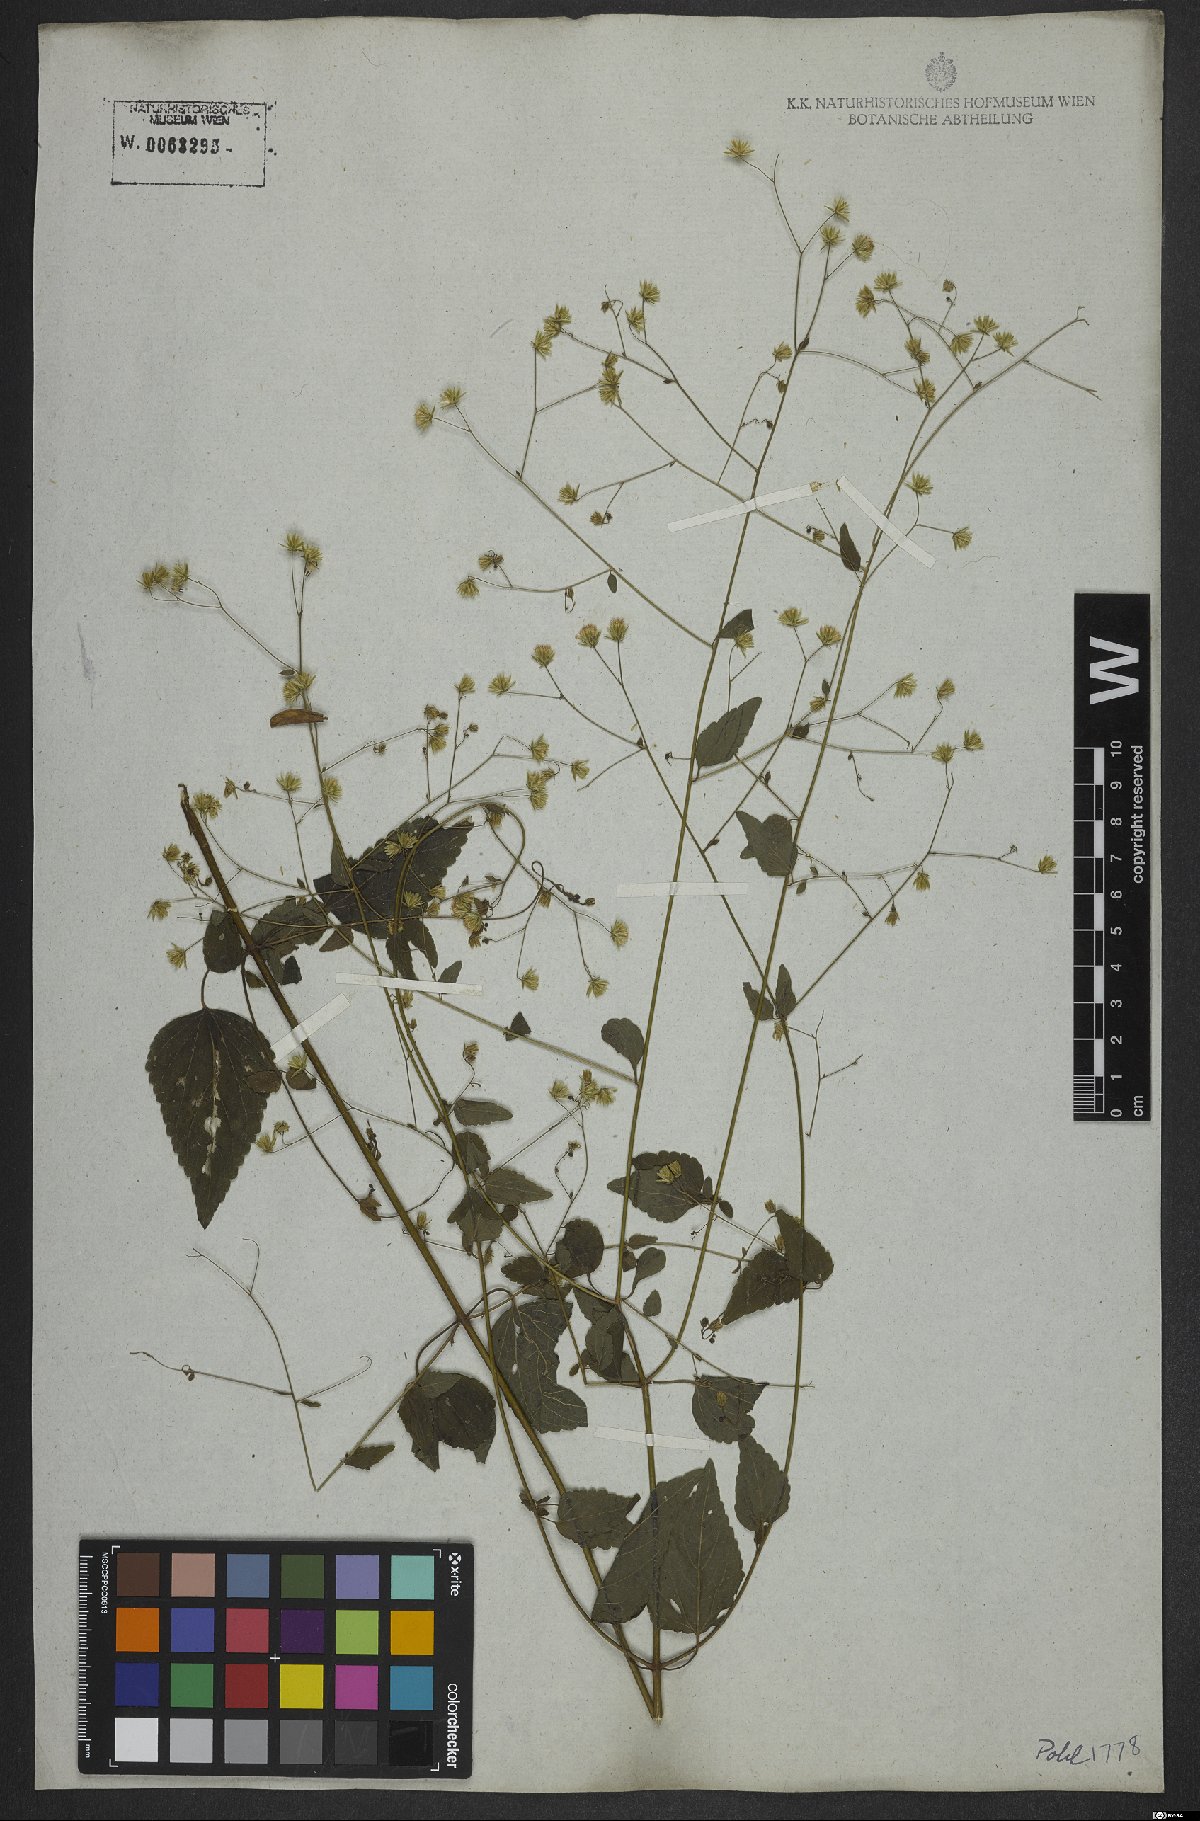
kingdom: Plantae
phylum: Tracheophyta
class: Magnoliopsida
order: Asterales
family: Asteraceae
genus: Fleischmannia
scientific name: Fleischmannia microstemon
